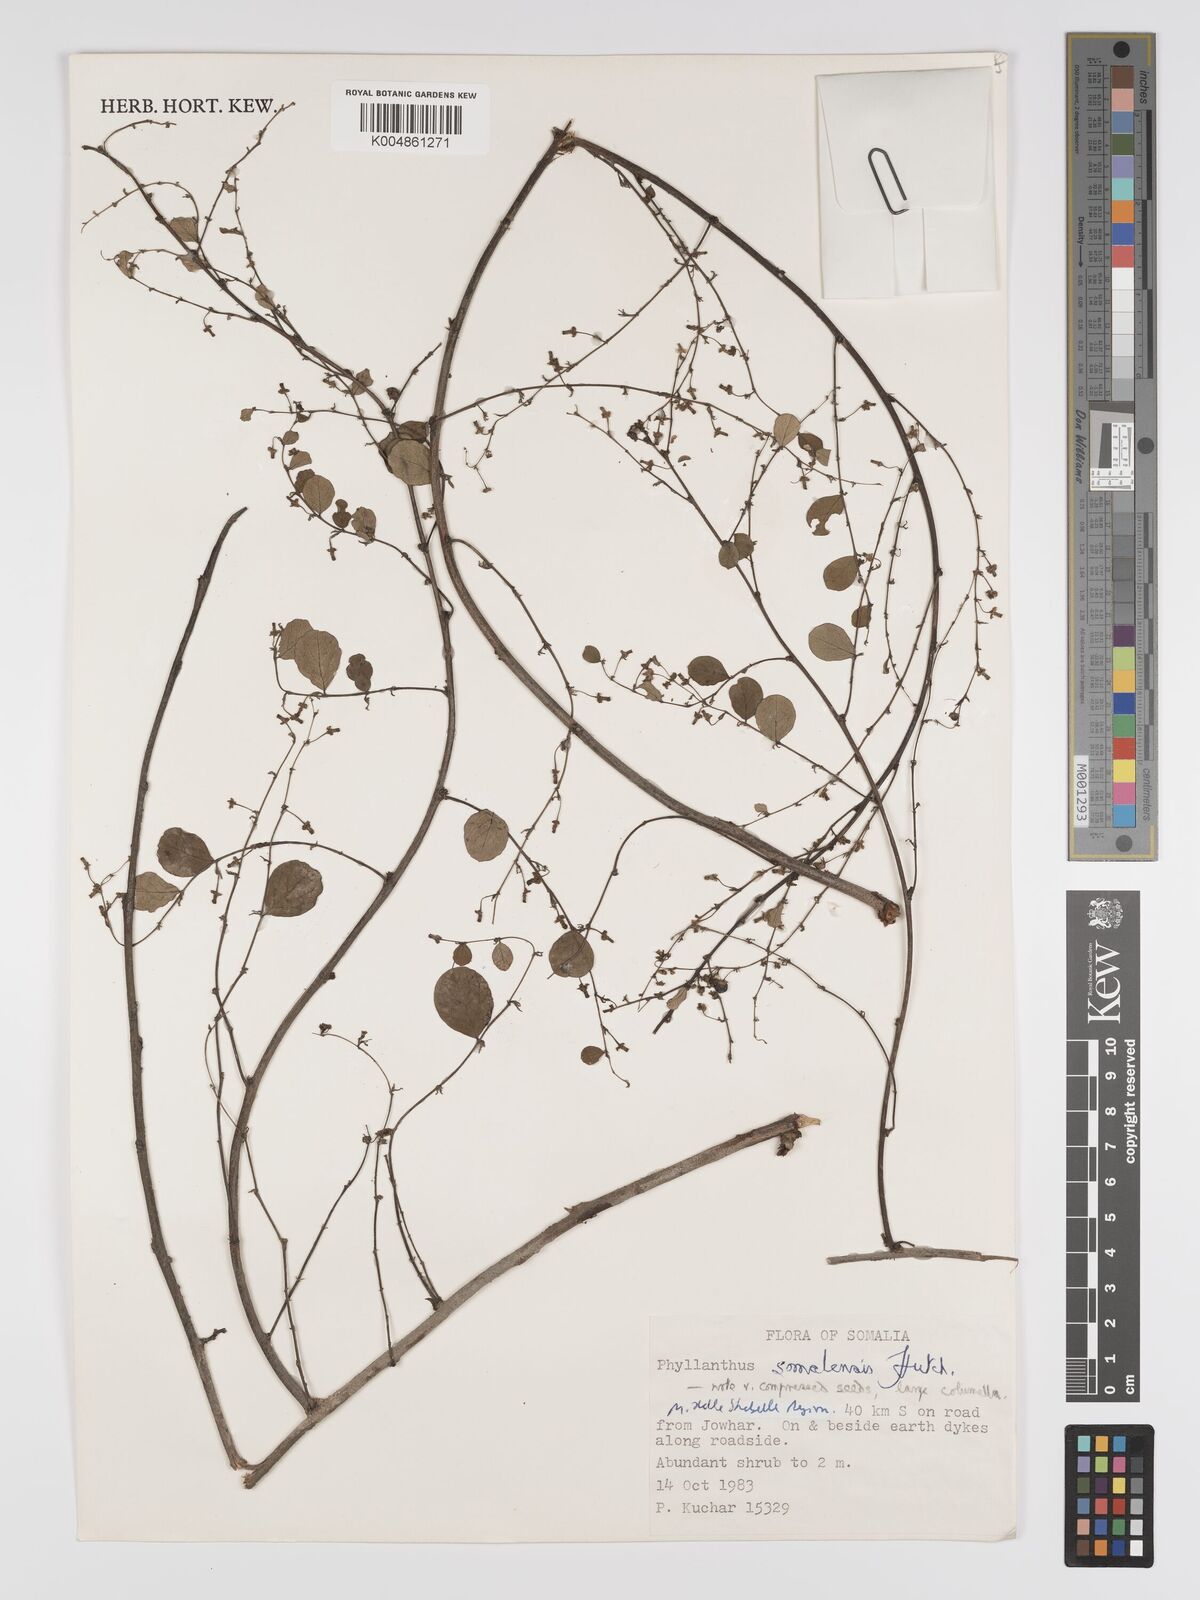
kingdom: Plantae
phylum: Tracheophyta
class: Magnoliopsida
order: Malpighiales
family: Phyllanthaceae
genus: Phyllanthus
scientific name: Phyllanthus somalensis
